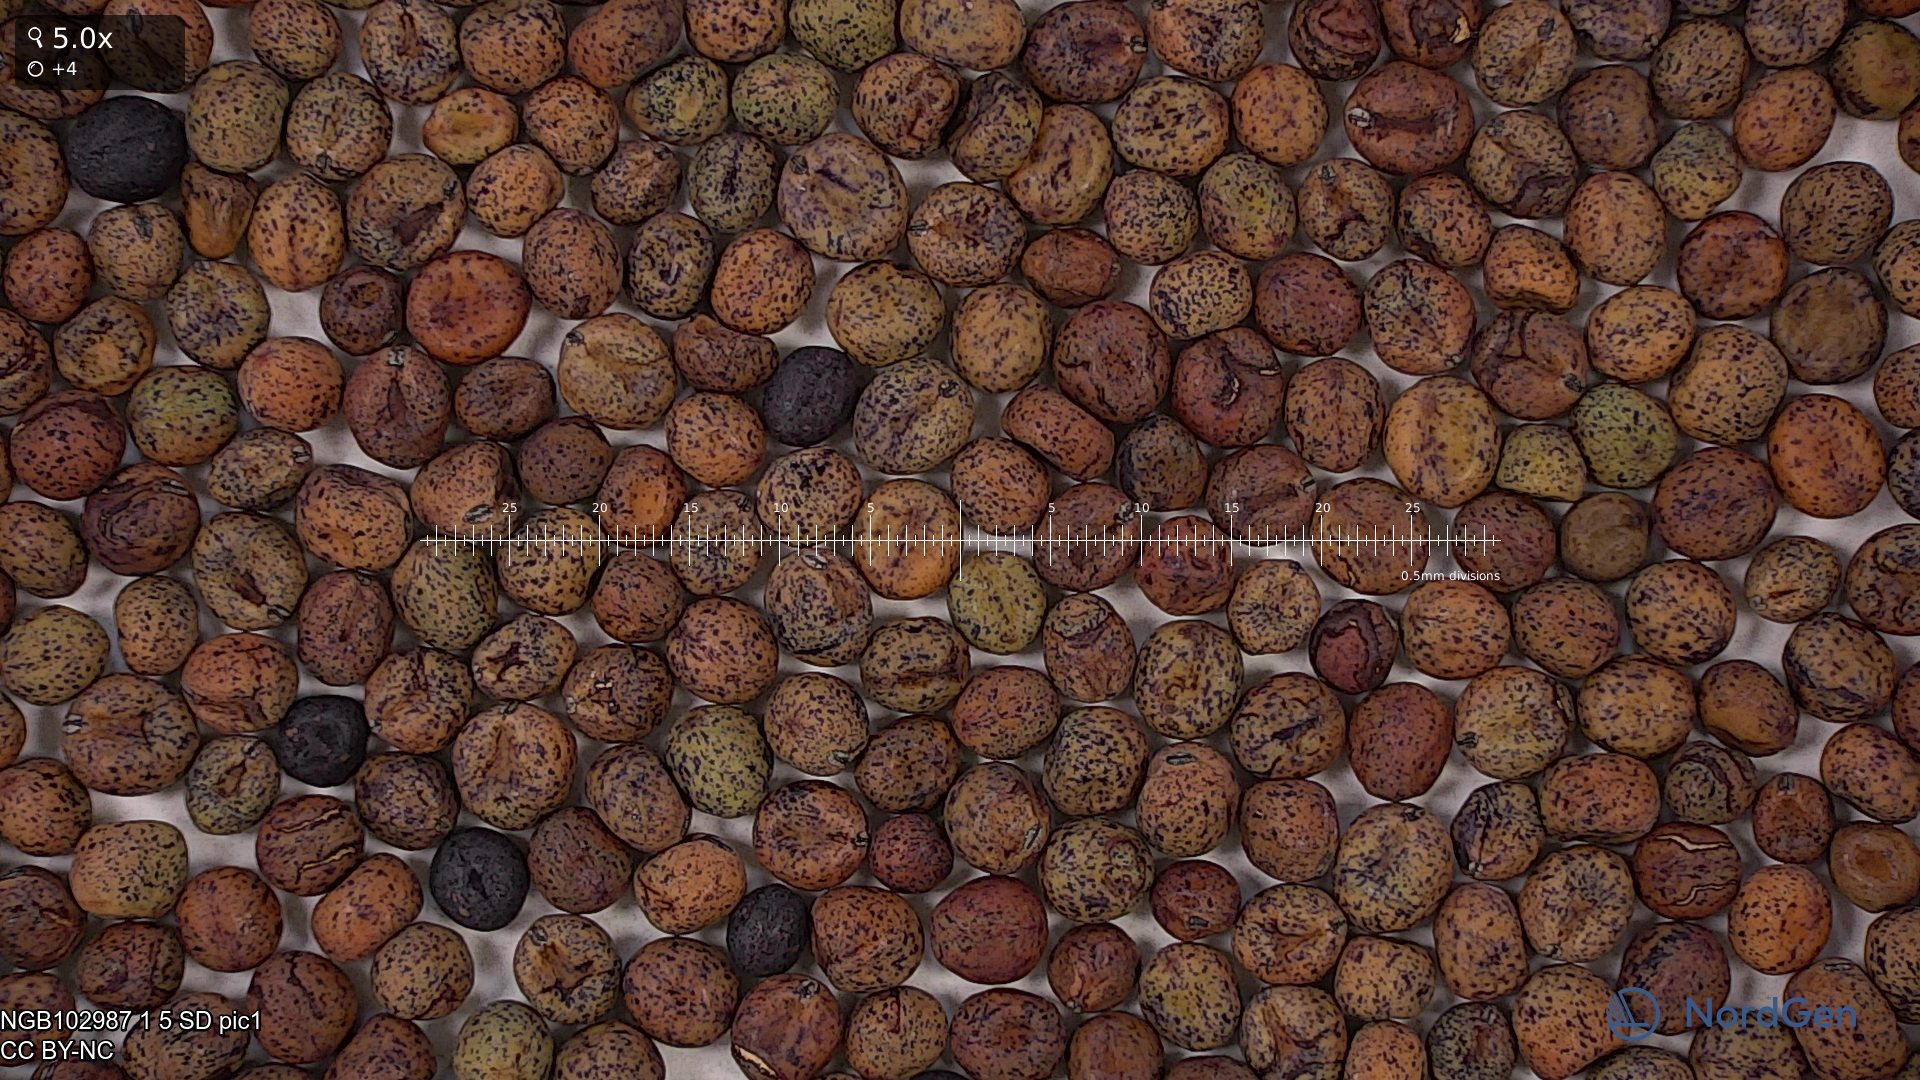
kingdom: Plantae
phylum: Tracheophyta
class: Magnoliopsida
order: Fabales
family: Fabaceae
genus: Lathyrus
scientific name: Lathyrus oleraceus
